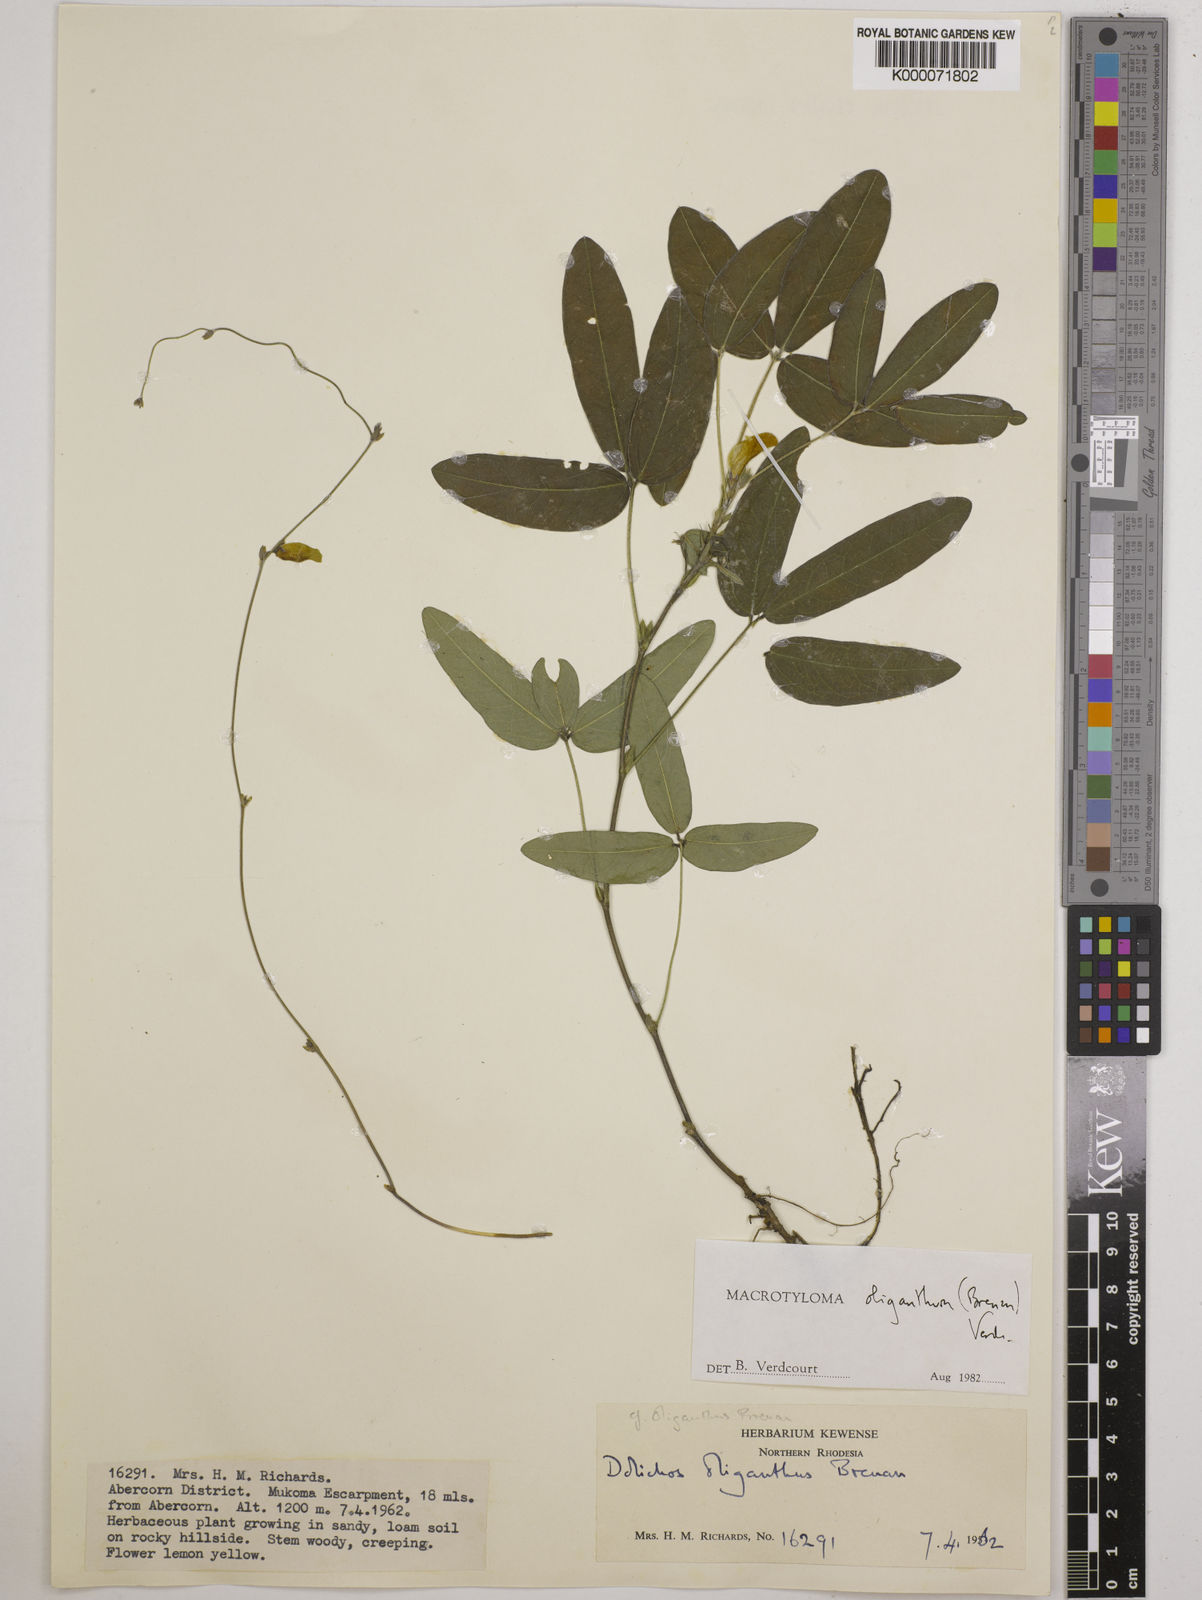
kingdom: Plantae
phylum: Tracheophyta
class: Magnoliopsida
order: Fabales
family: Fabaceae
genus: Macrotyloma
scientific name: Macrotyloma oliganthum
